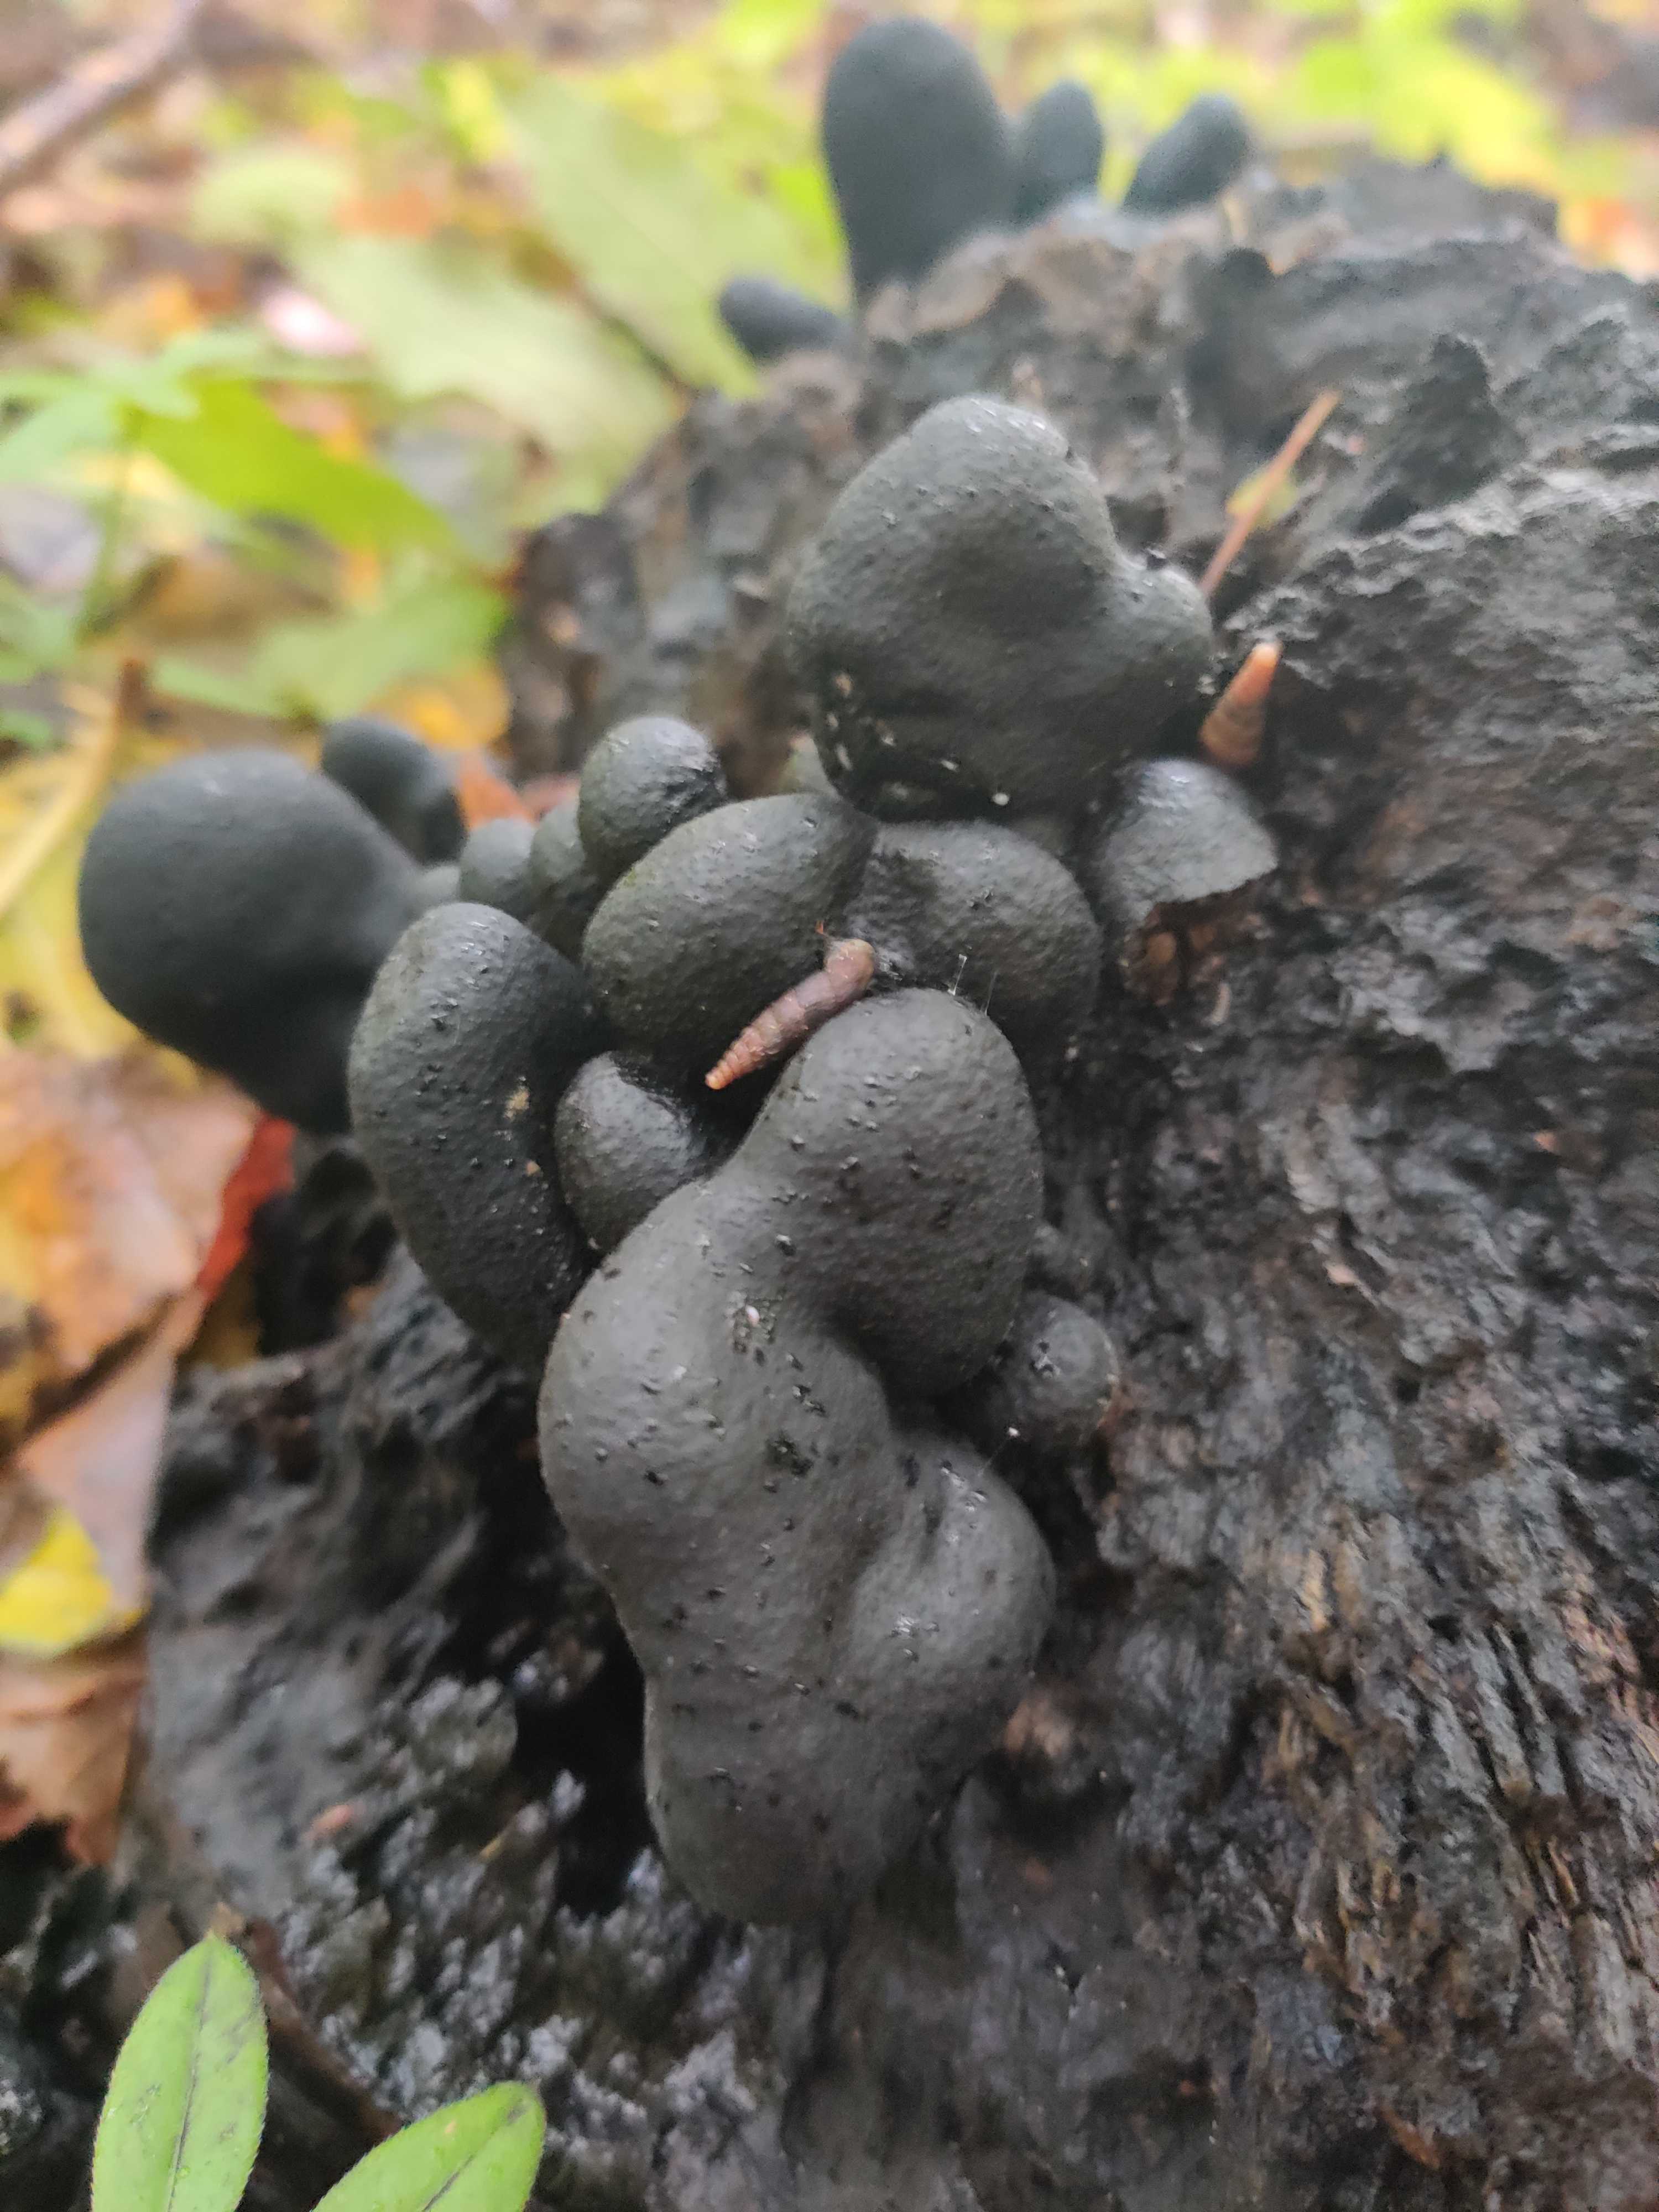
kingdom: Fungi
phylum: Ascomycota
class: Sordariomycetes
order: Xylariales
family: Xylariaceae
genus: Xylaria
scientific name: Xylaria polymorpha
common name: kølle-stødsvamp
